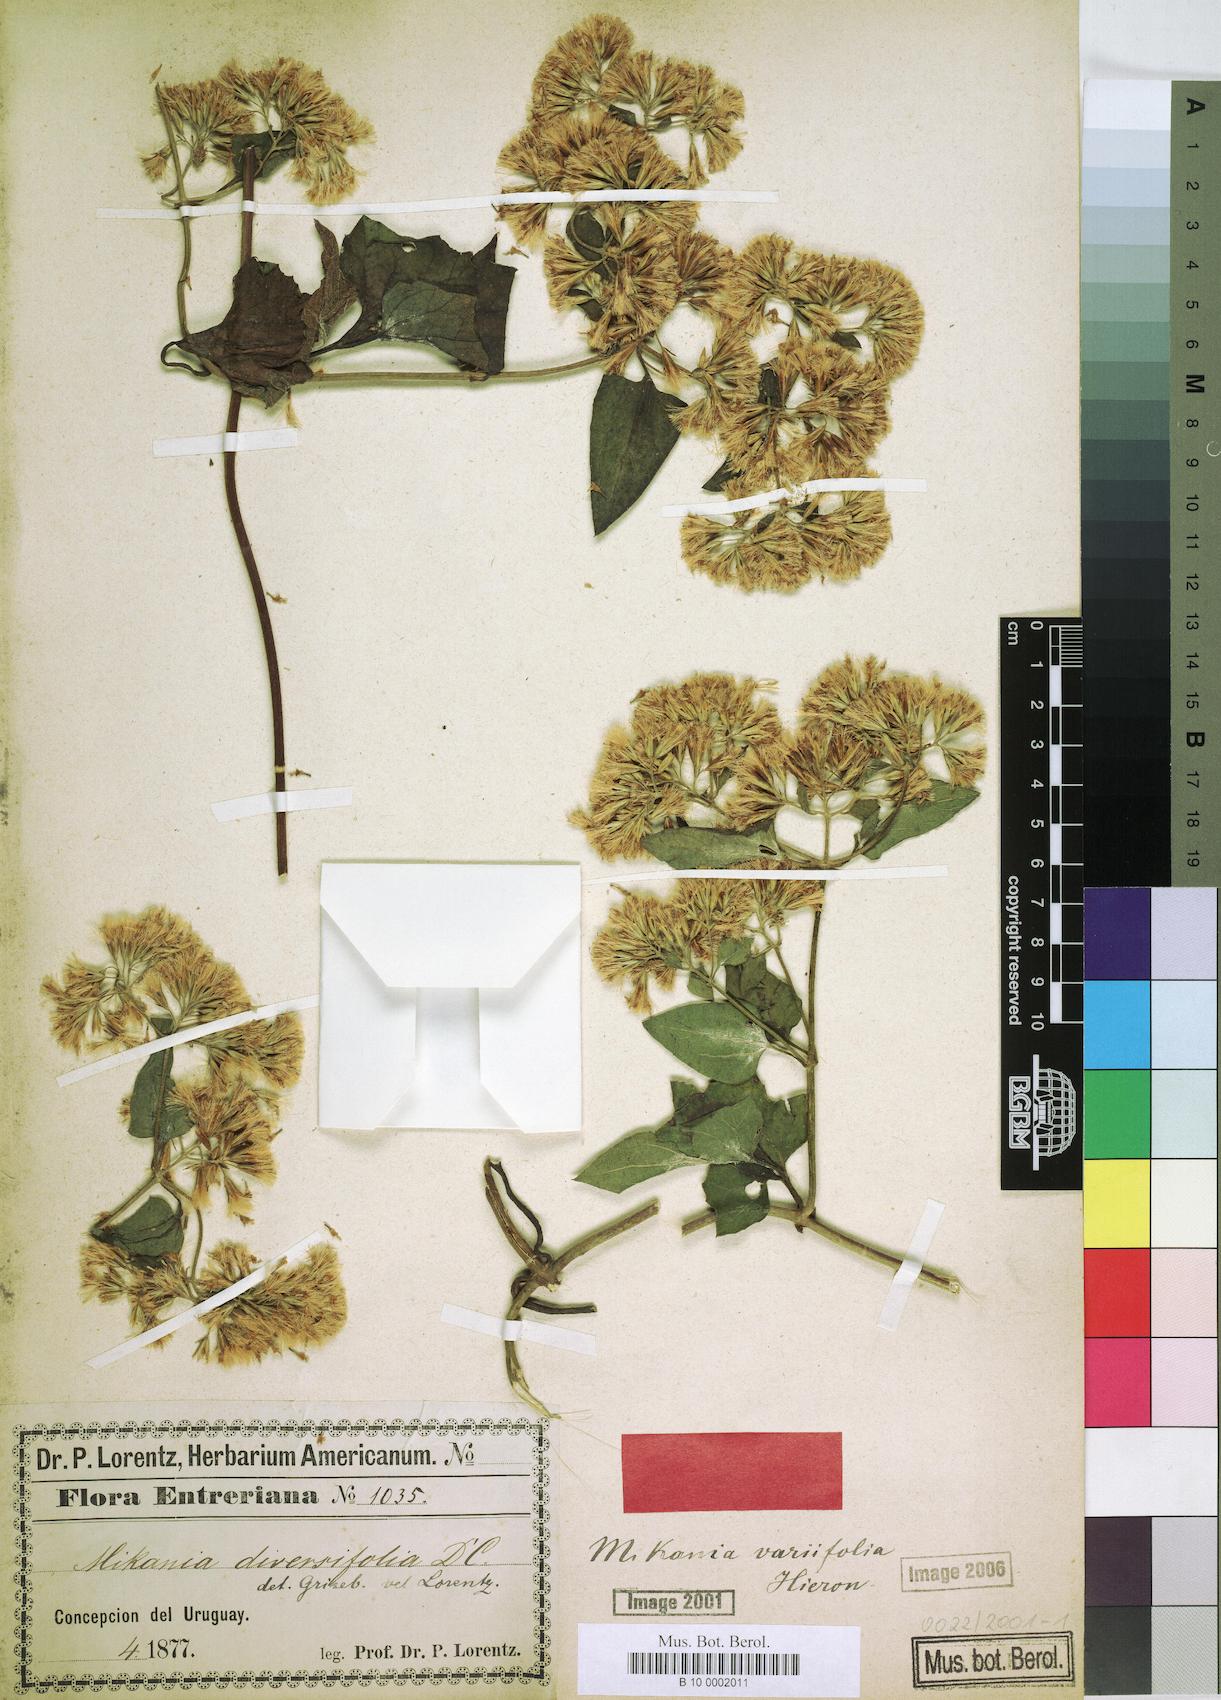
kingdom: Plantae
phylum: Tracheophyta
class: Magnoliopsida
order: Asterales
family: Asteraceae
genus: Mikania
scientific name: Mikania variifolia
